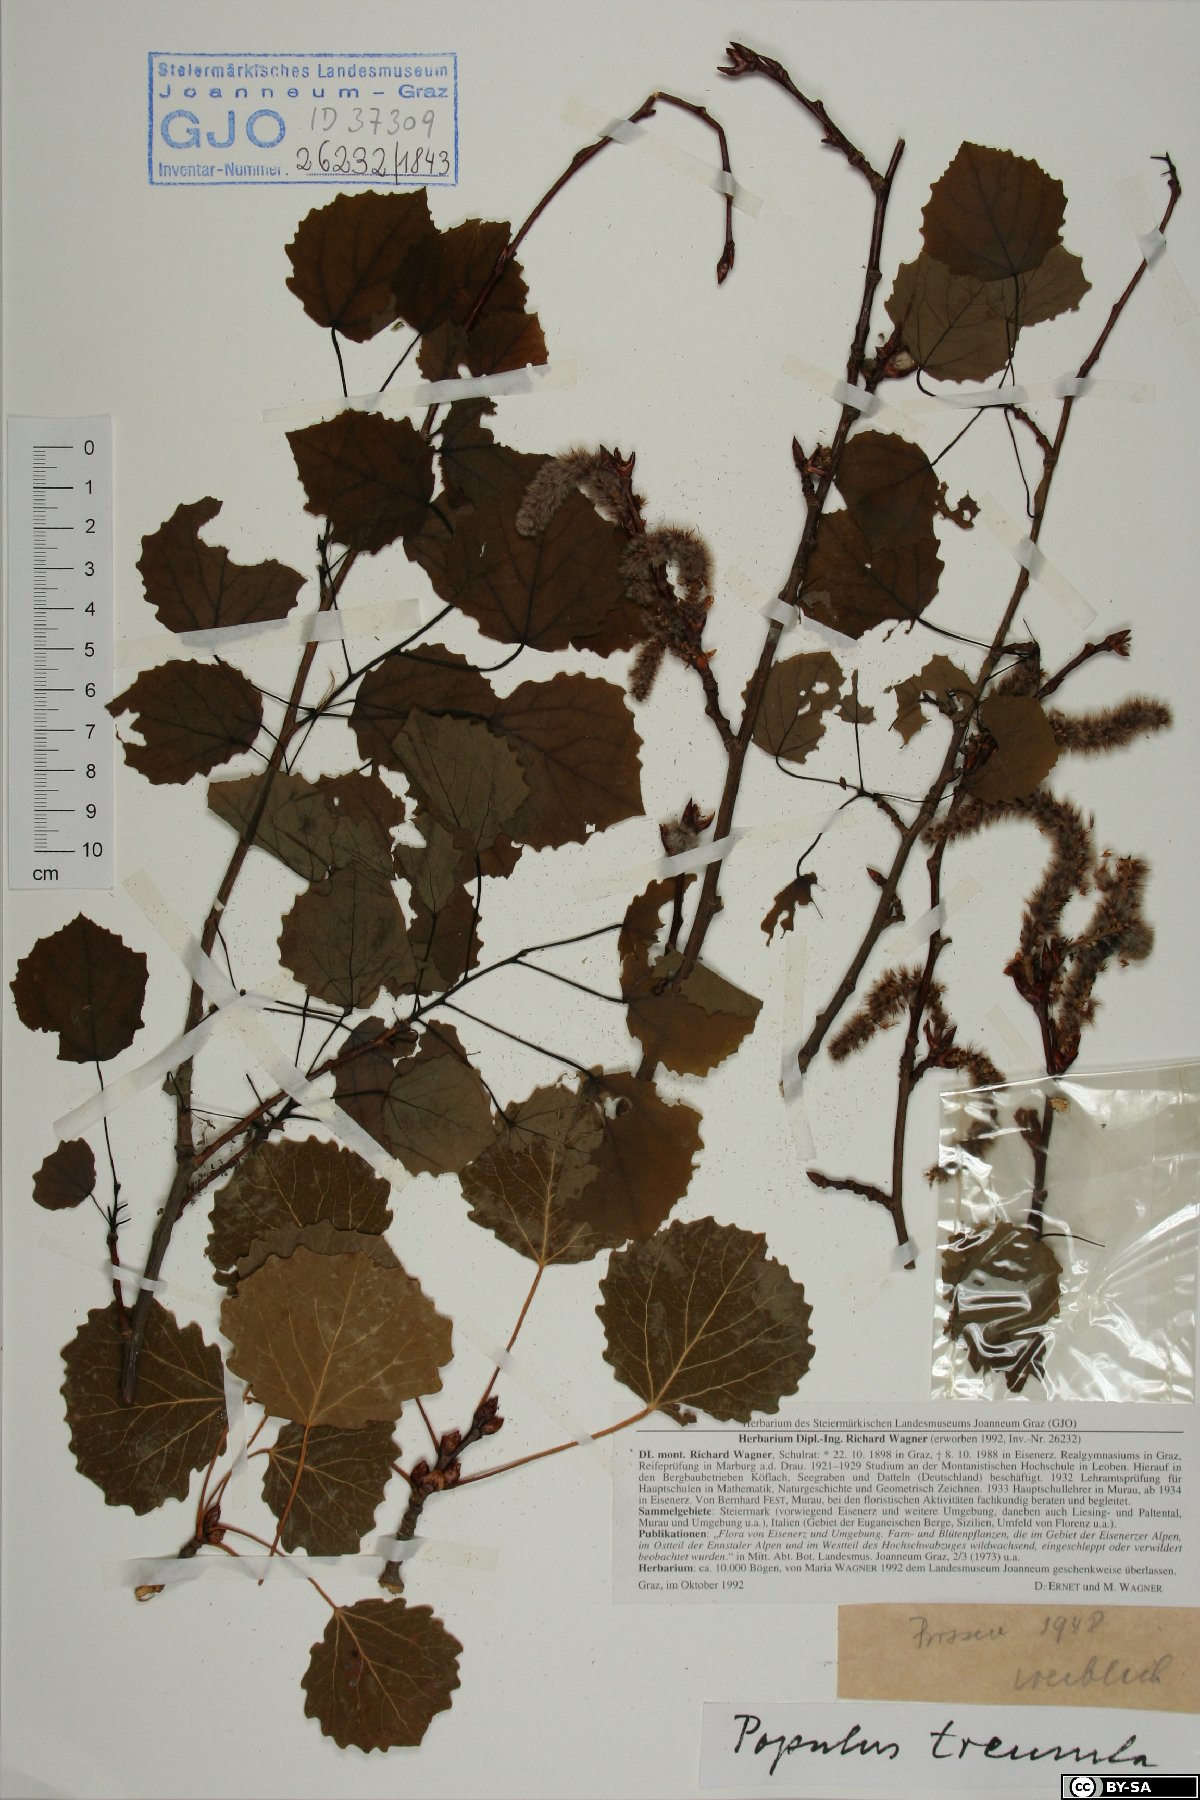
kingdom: Plantae
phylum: Tracheophyta
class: Magnoliopsida
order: Malpighiales
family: Salicaceae
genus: Populus
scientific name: Populus tremula
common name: European aspen
